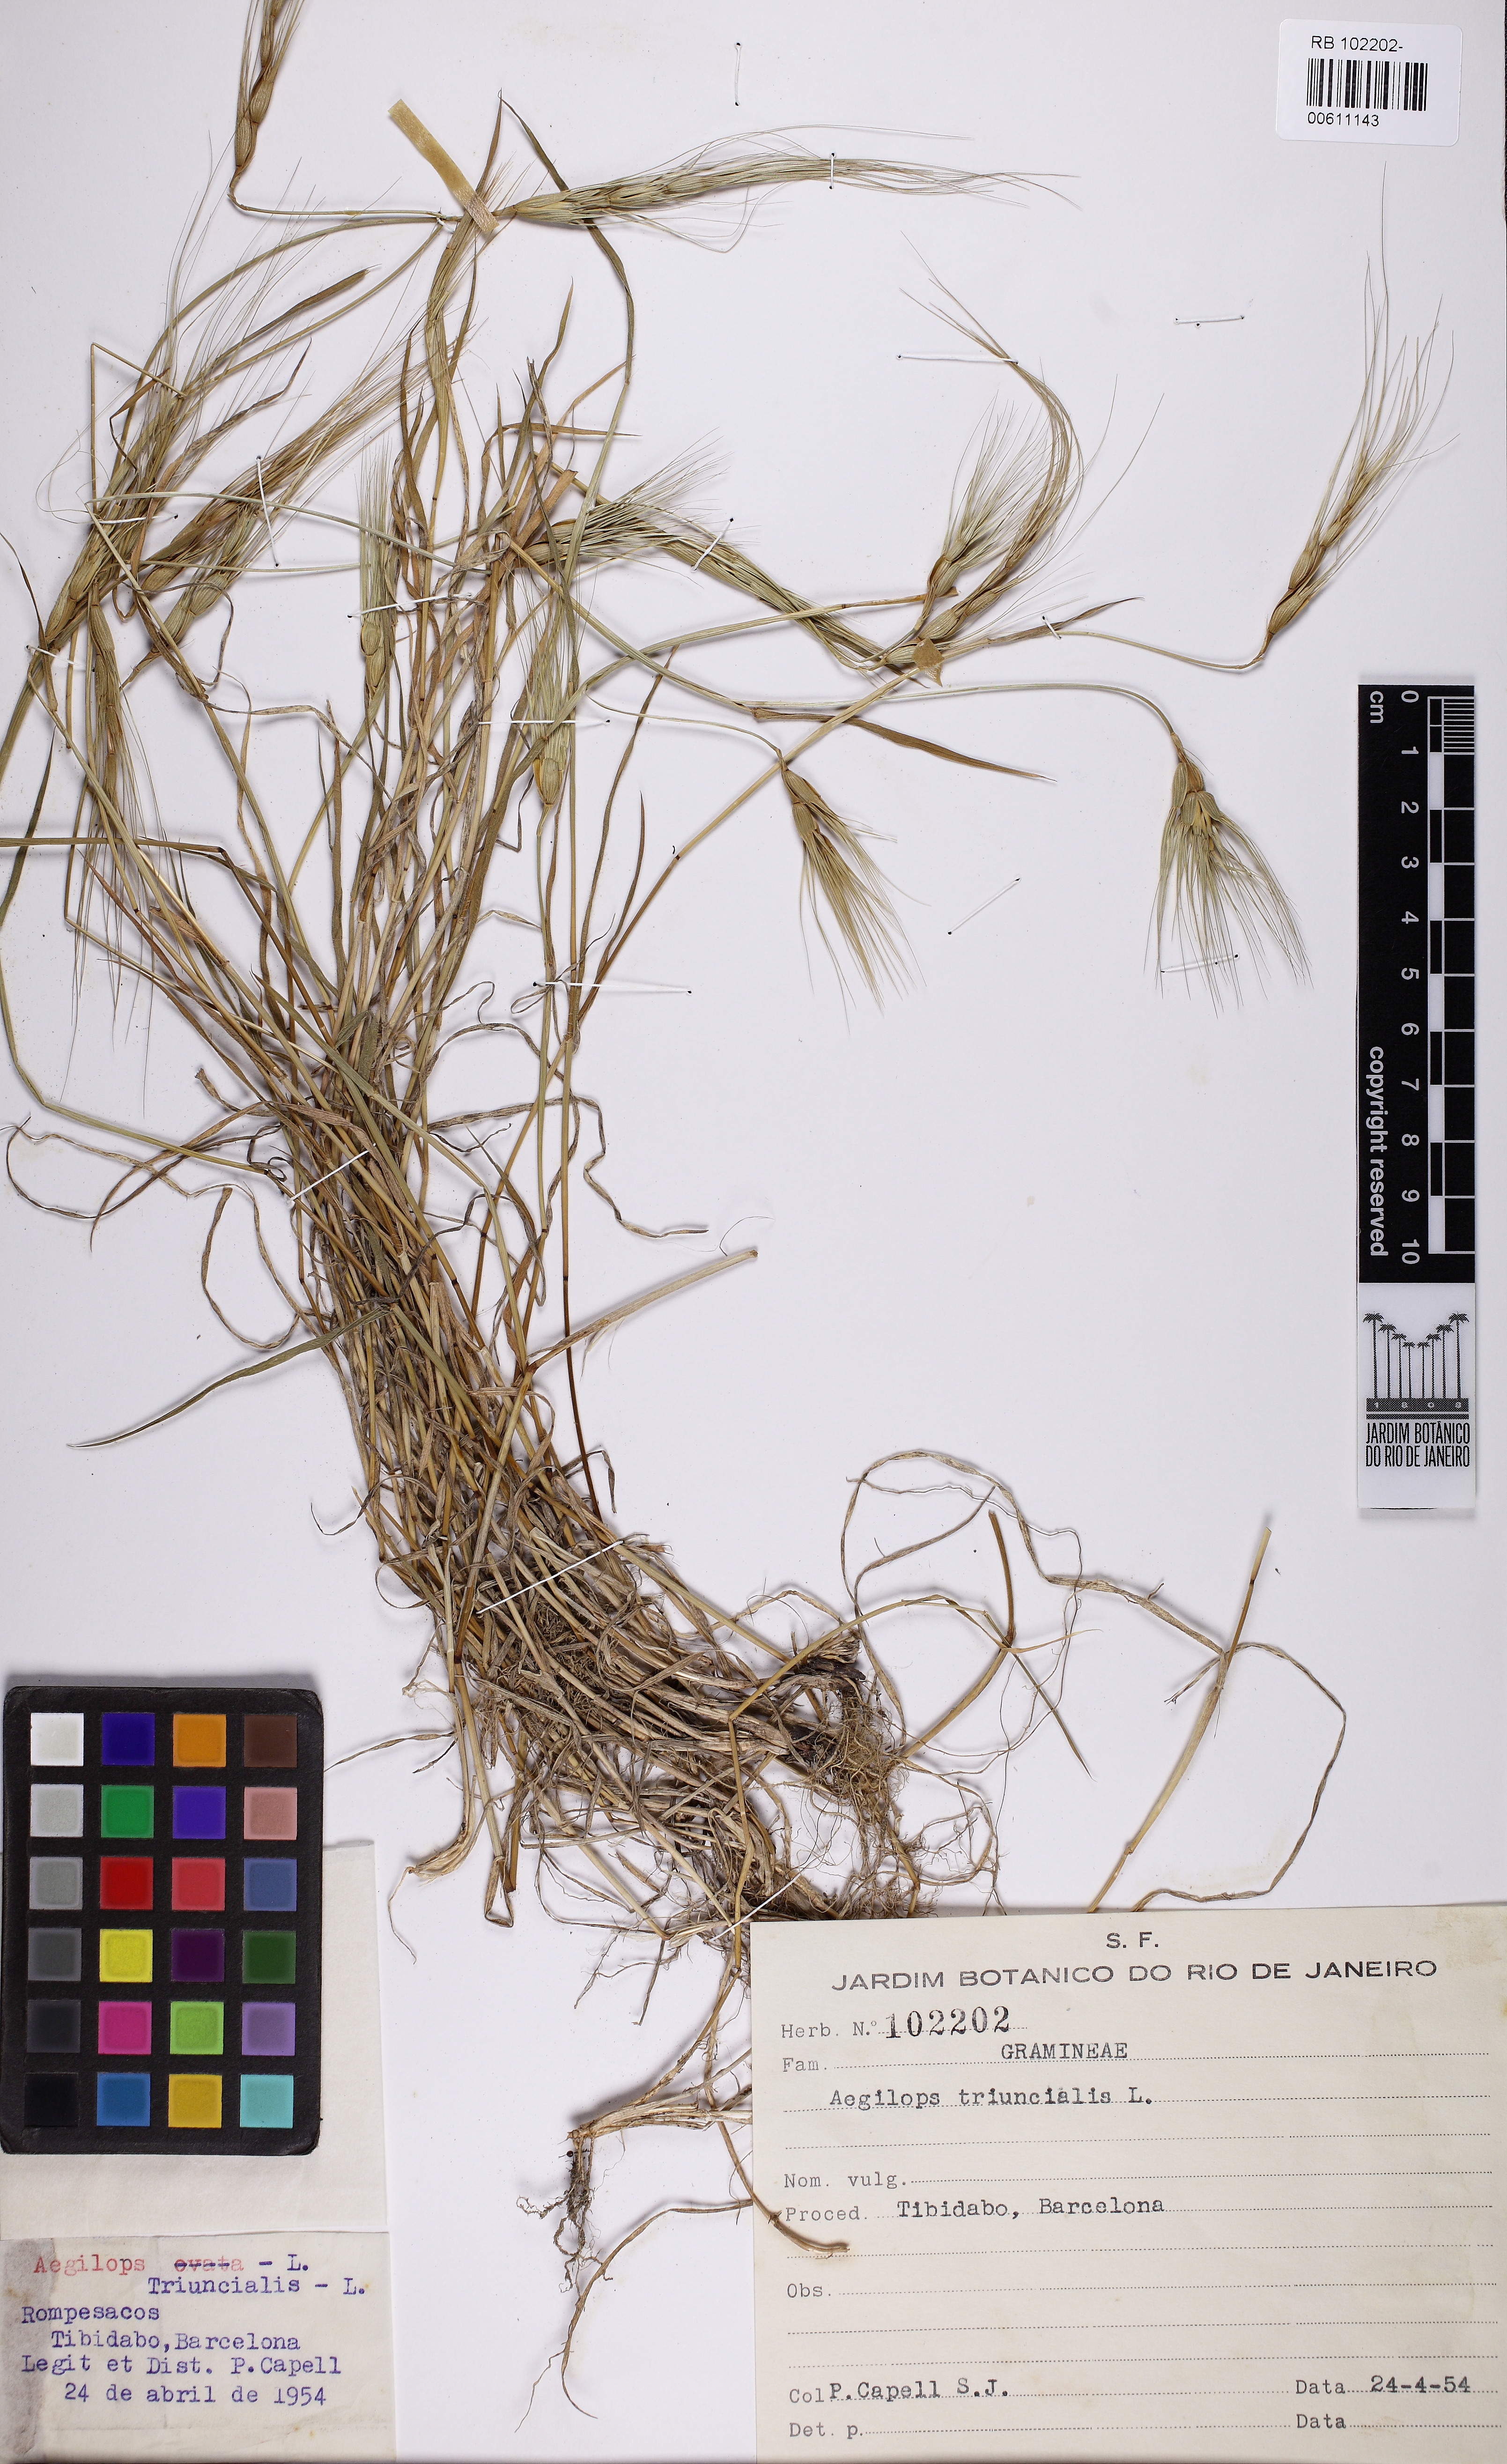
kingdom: Plantae
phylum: Tracheophyta
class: Liliopsida
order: Poales
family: Poaceae
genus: Aegilops
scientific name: Aegilops triuncialis
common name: Barb goat grass
